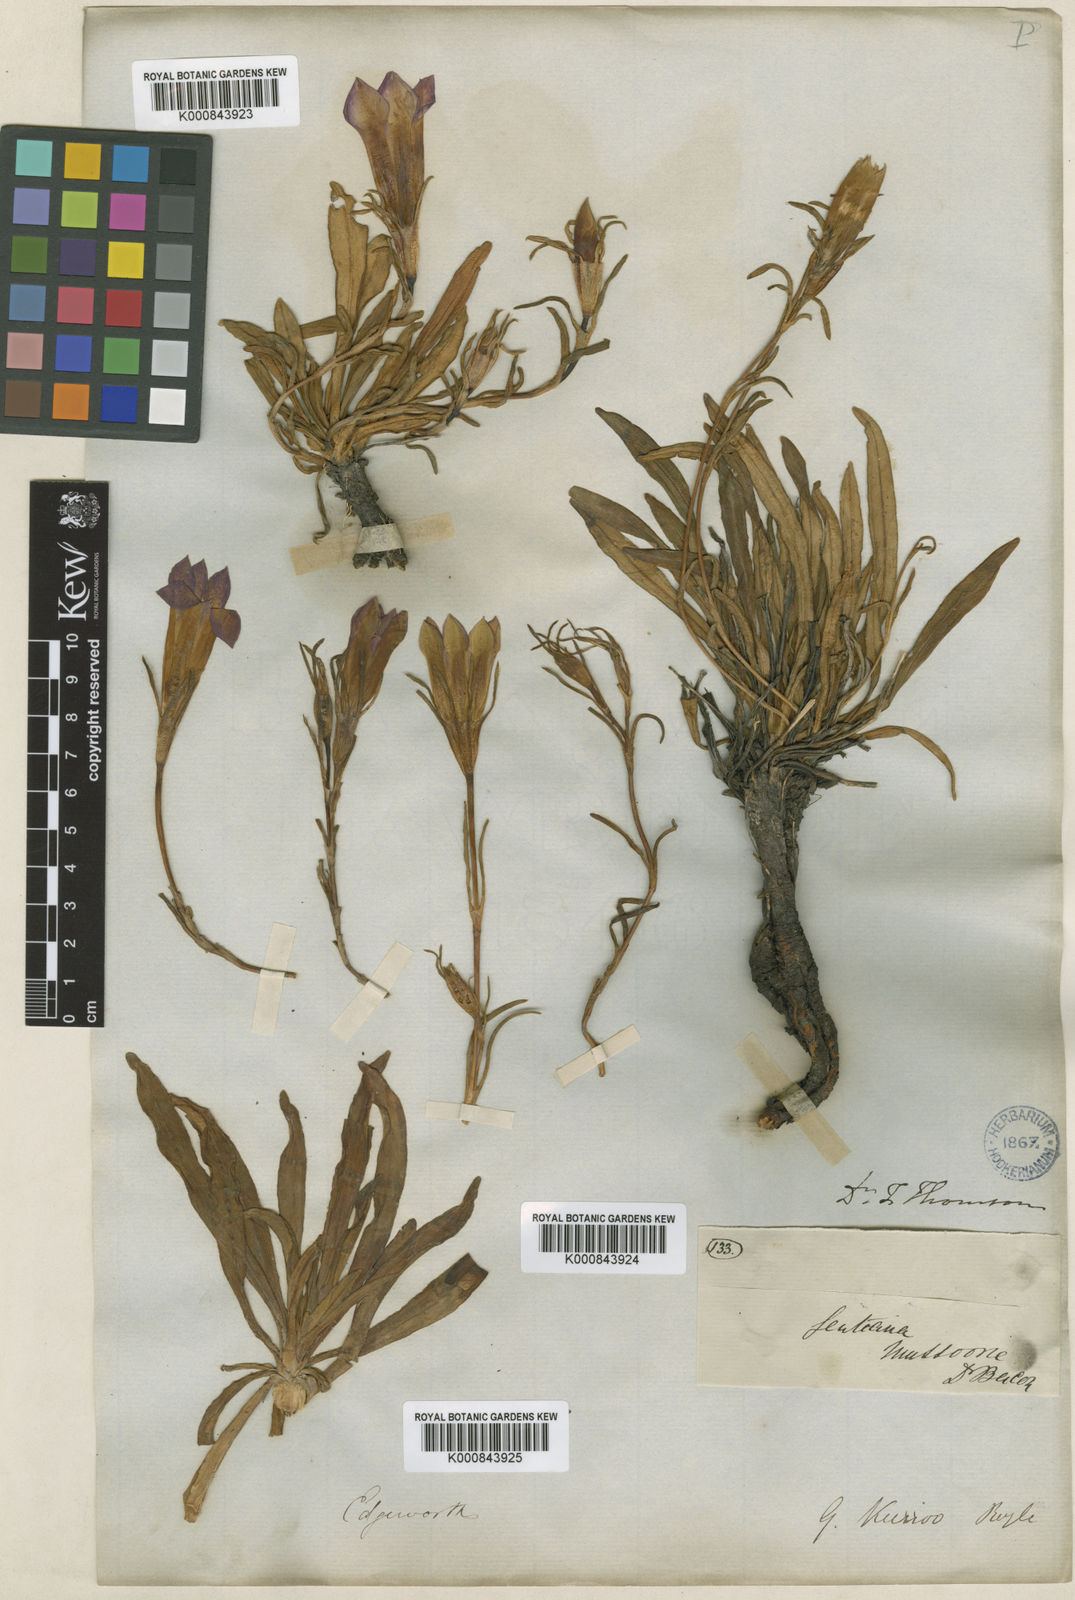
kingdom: Plantae
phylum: Tracheophyta
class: Magnoliopsida
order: Gentianales
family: Gentianaceae
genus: Gentiana
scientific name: Gentiana kurroo
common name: Himalayan gentian
